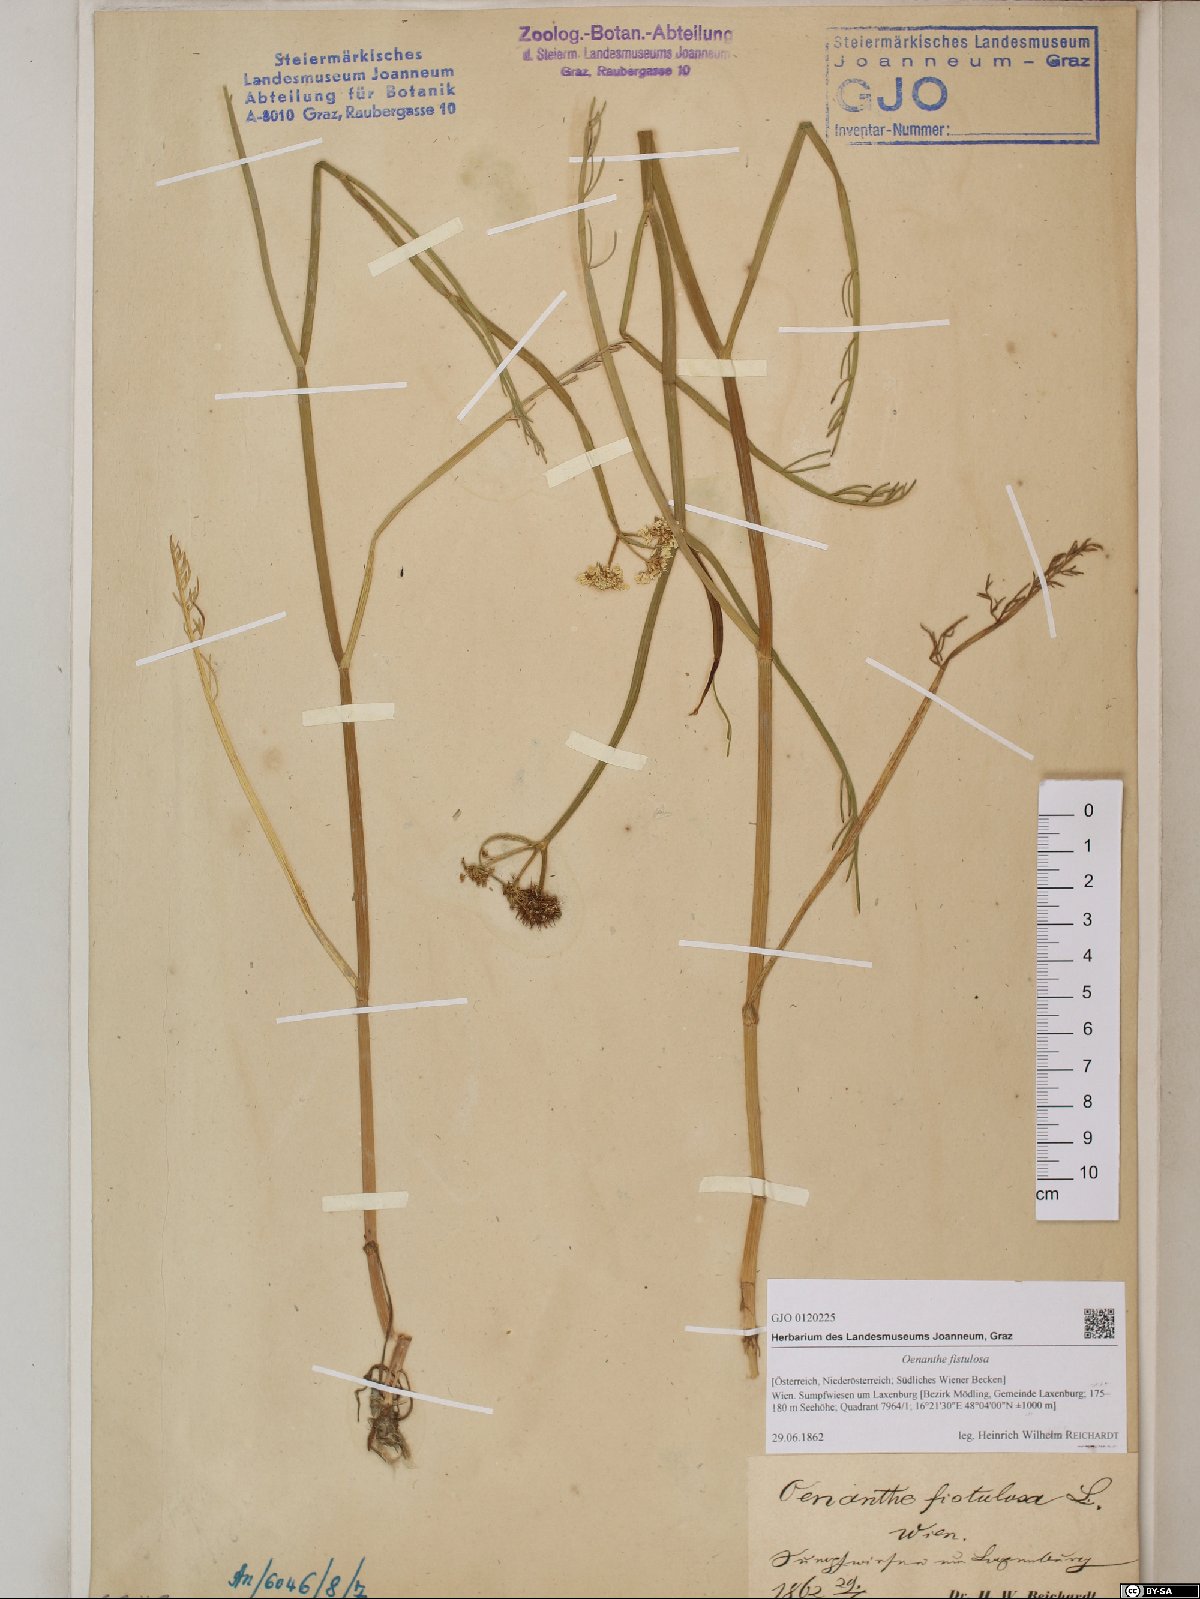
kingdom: Plantae
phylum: Tracheophyta
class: Magnoliopsida
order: Apiales
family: Apiaceae
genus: Oenanthe
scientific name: Oenanthe fistulosa
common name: Tubular water-dropwort
